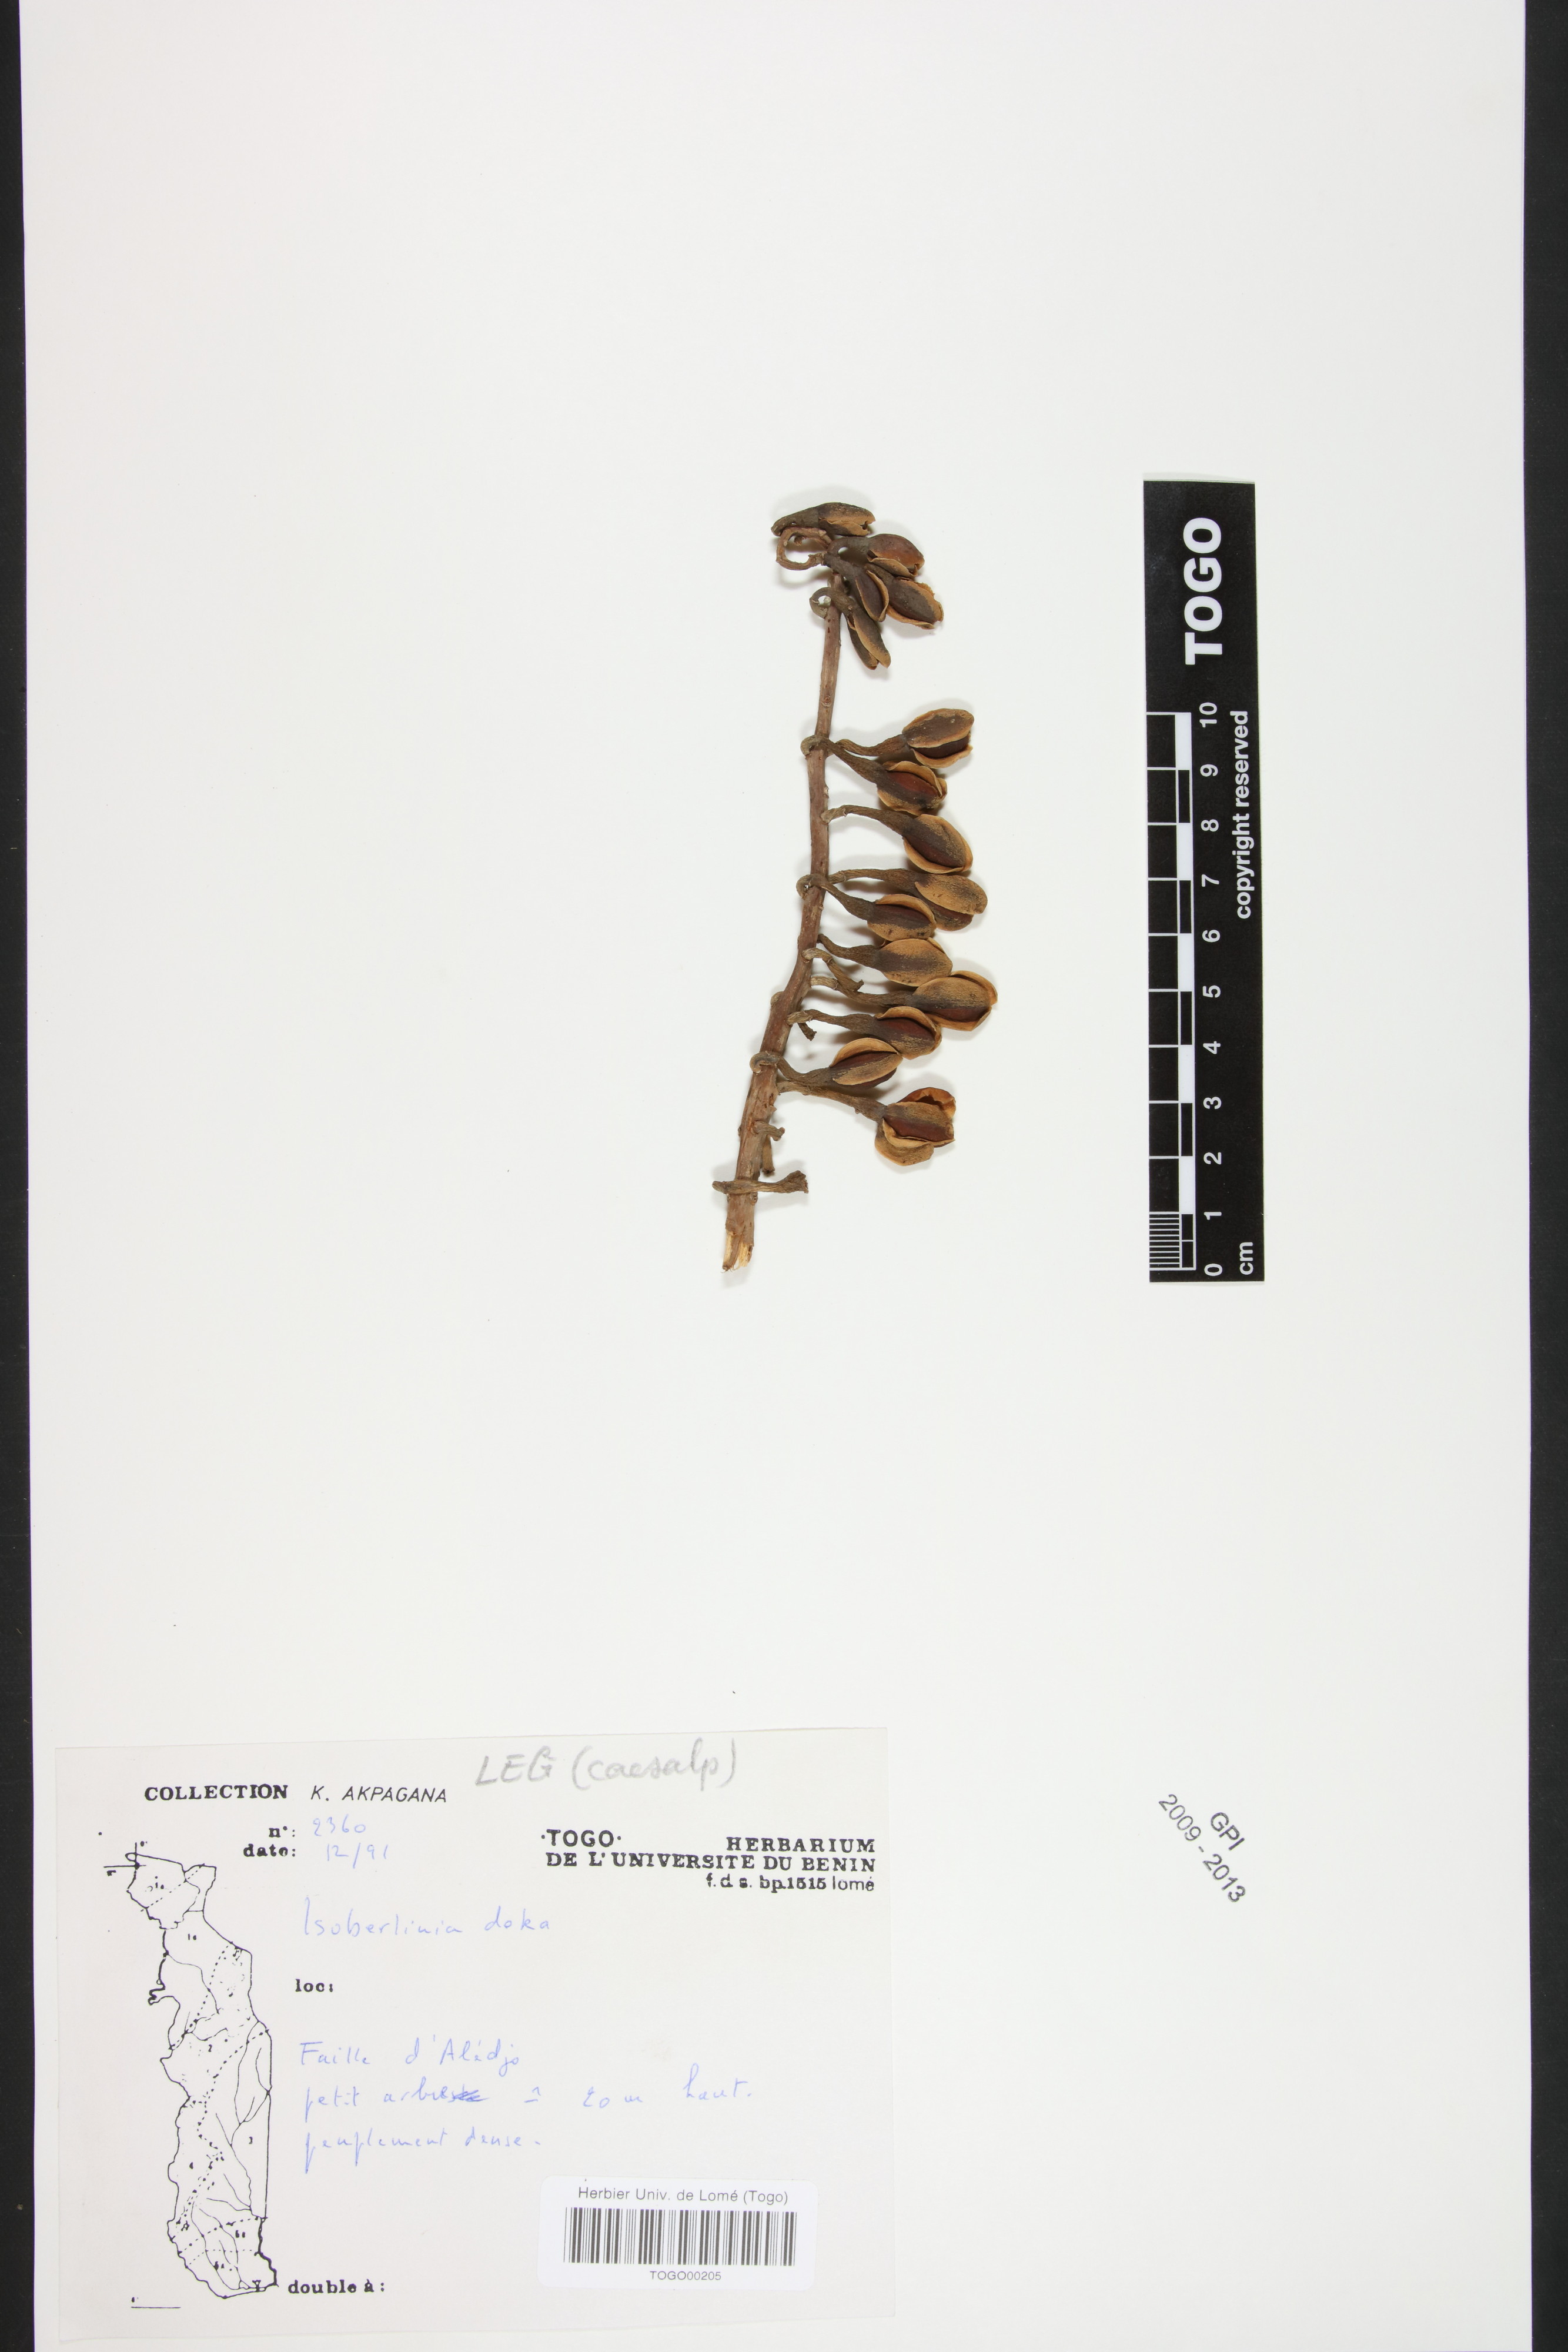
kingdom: Plantae
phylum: Tracheophyta
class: Magnoliopsida
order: Fabales
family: Fabaceae
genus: Isoberlinia
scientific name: Isoberlinia doka
